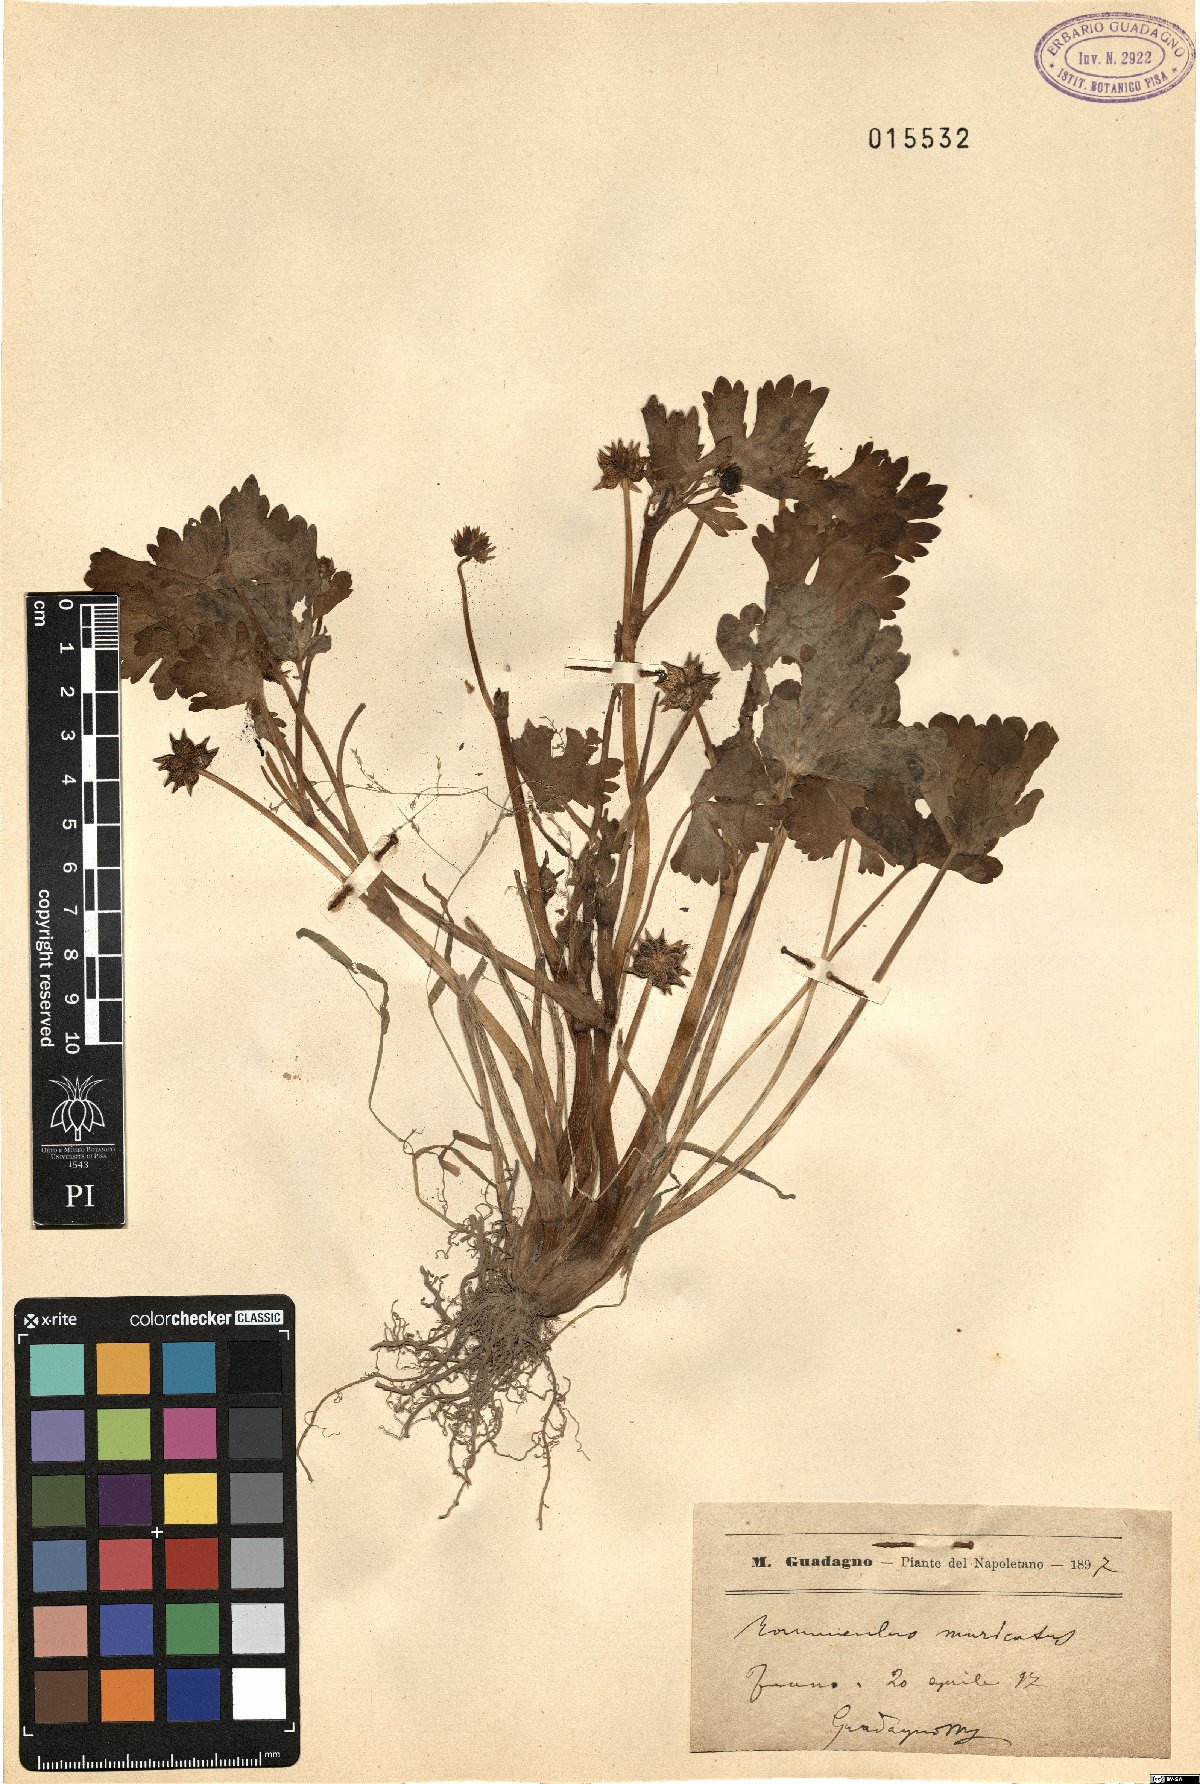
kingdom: Plantae
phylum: Tracheophyta
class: Magnoliopsida
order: Ranunculales
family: Ranunculaceae
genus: Ranunculus
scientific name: Ranunculus muricatus
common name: Rough-fruited buttercup
